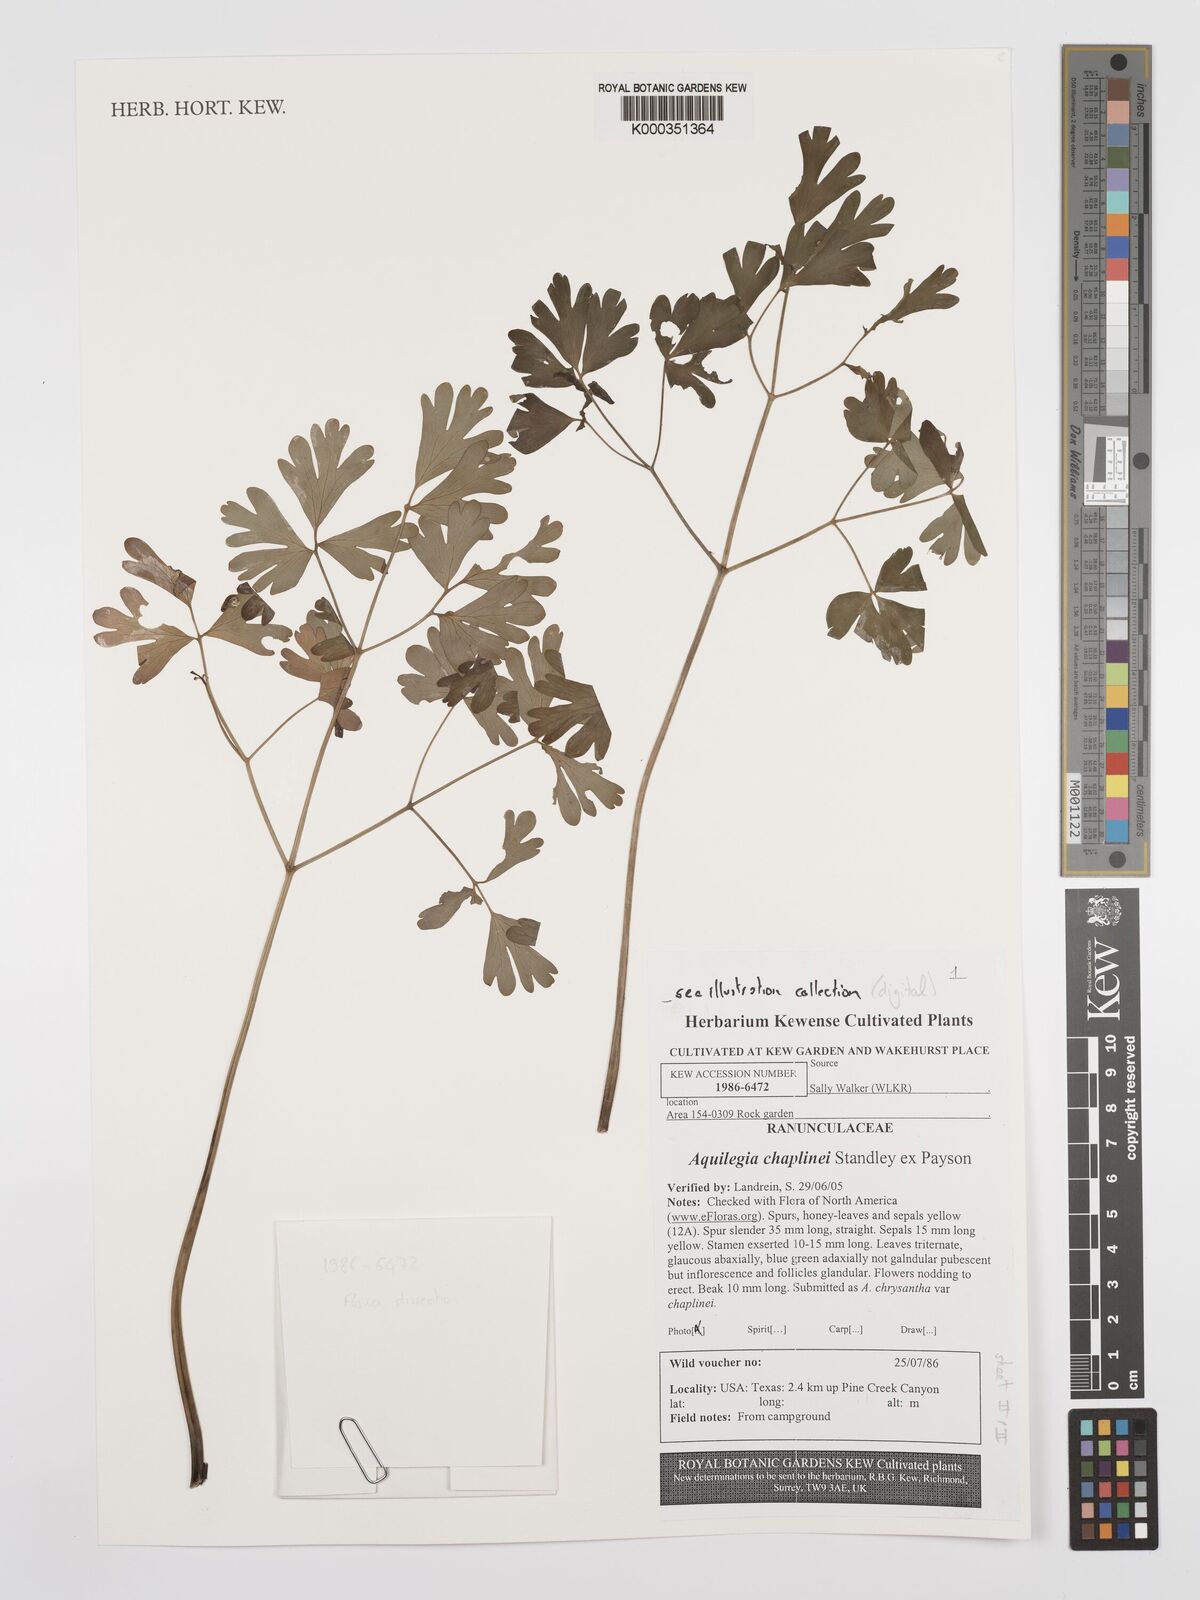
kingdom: Plantae
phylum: Tracheophyta
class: Magnoliopsida
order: Ranunculales
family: Ranunculaceae
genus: Aquilegia
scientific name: Aquilegia chrysantha
